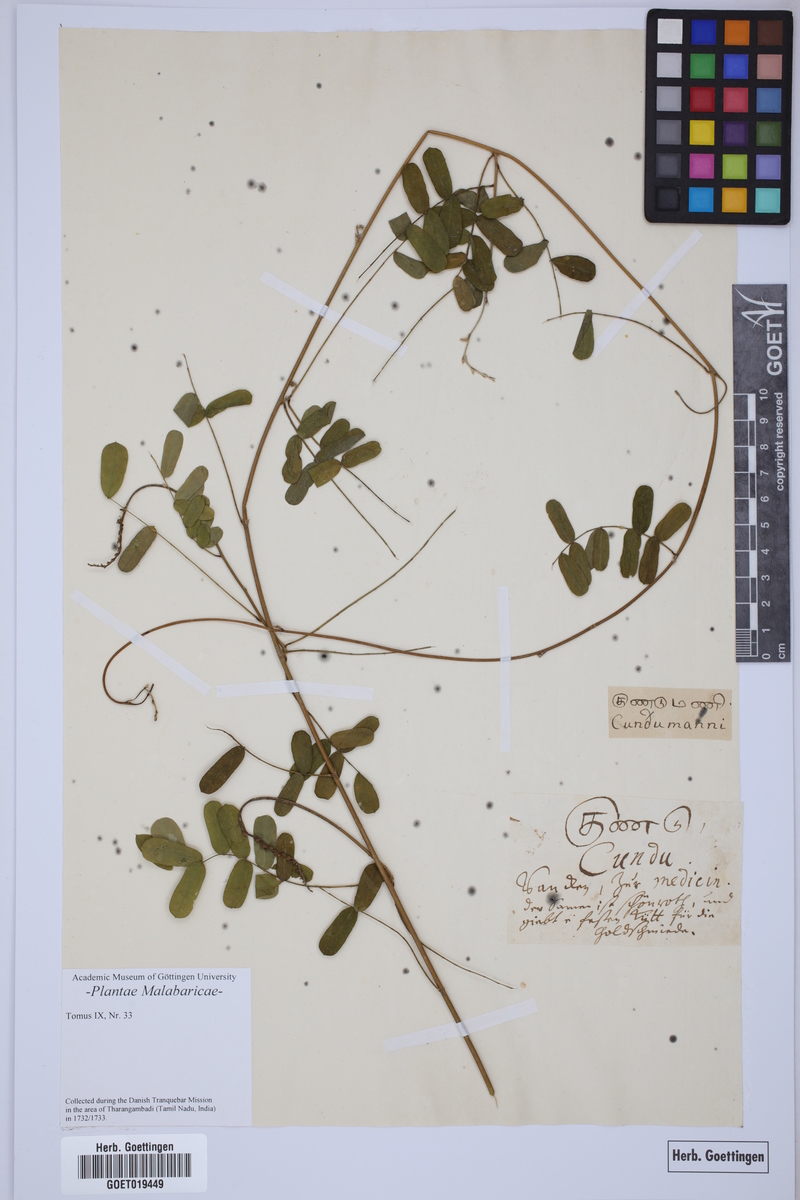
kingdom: Plantae
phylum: Tracheophyta
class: Magnoliopsida
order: Fabales
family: Fabaceae
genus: Abrus
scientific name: Abrus precatorius
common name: Rosarypea
